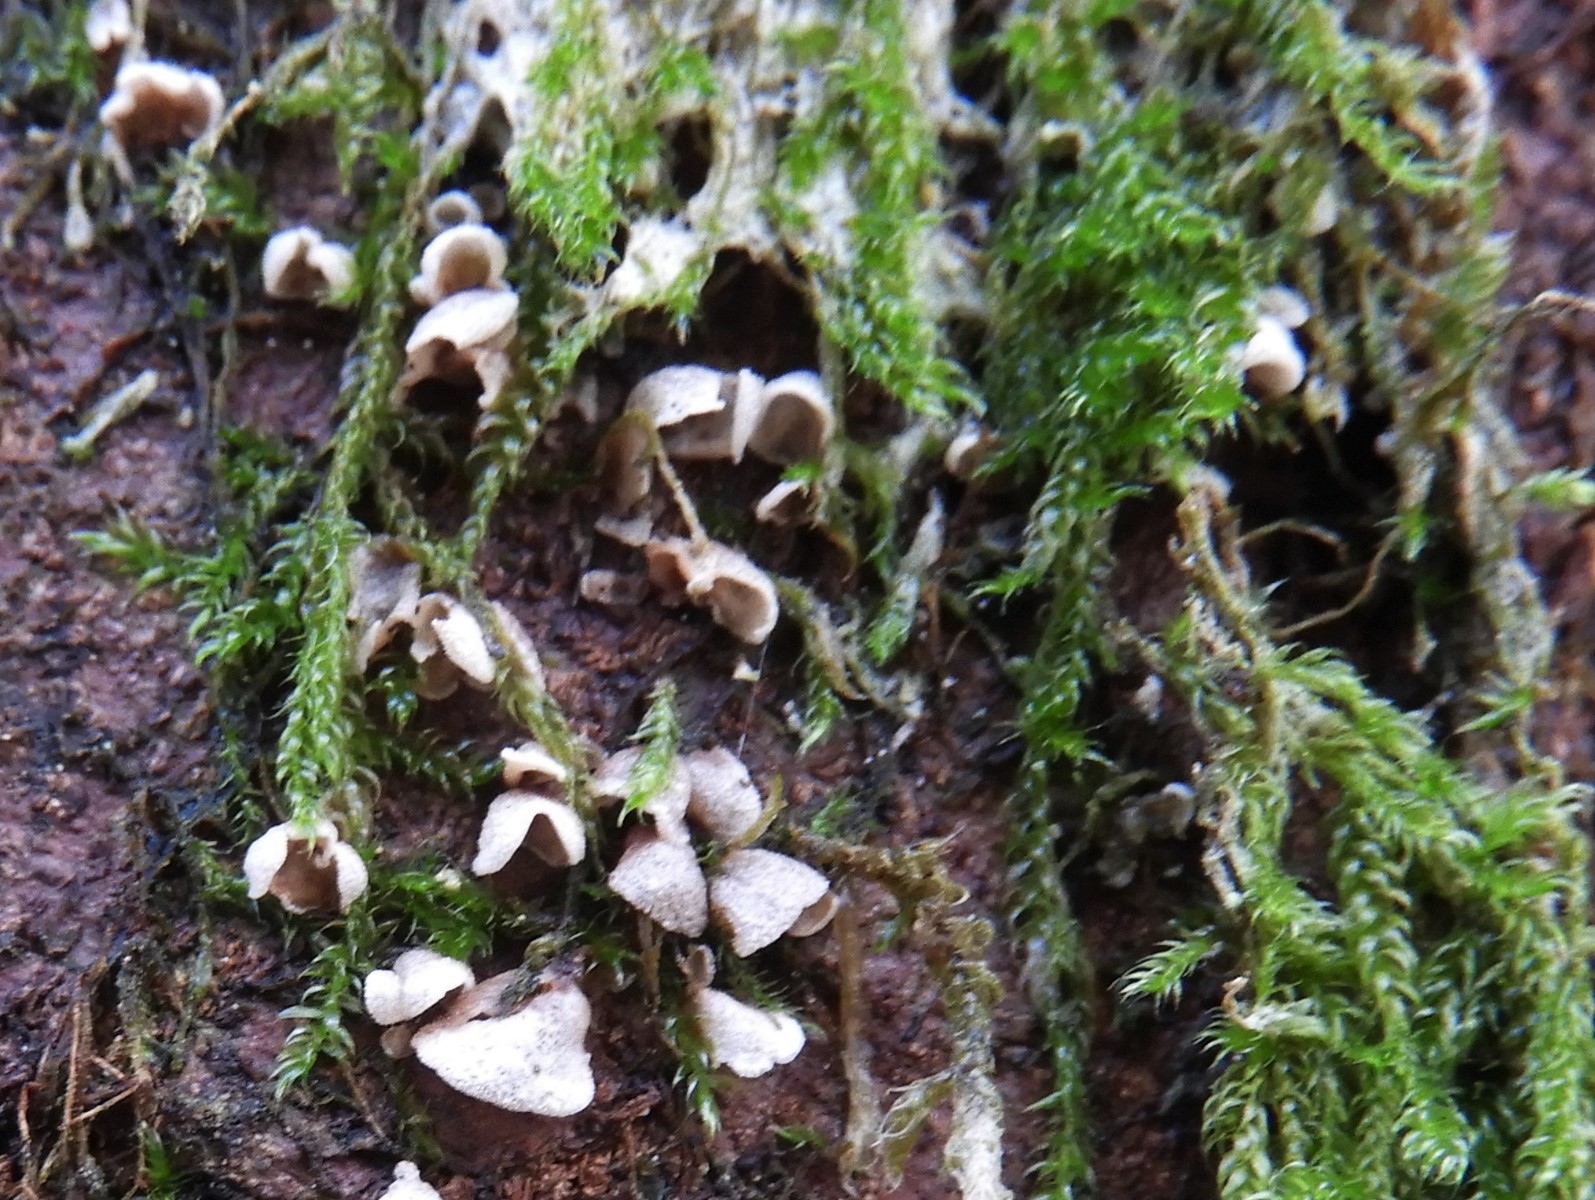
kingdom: Fungi
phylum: Basidiomycota
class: Agaricomycetes
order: Agaricales
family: Chromocyphellaceae
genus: Chromocyphella
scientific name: Chromocyphella muscicola
